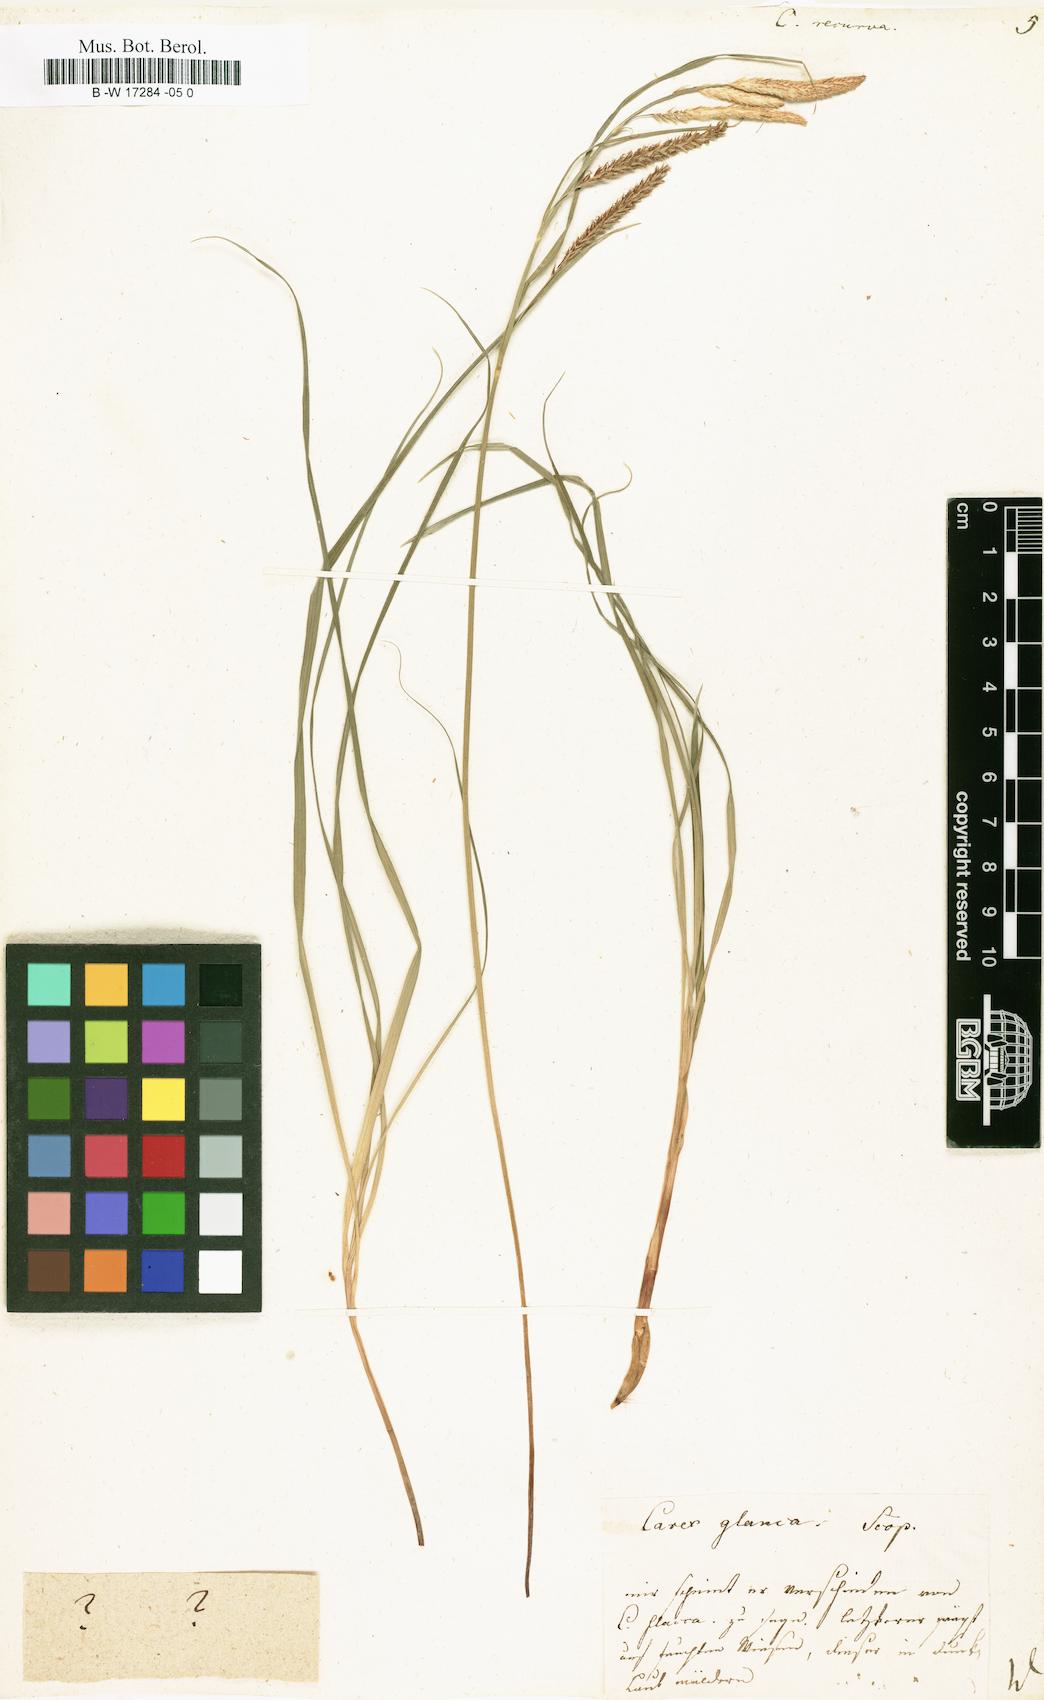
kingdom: Plantae
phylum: Tracheophyta
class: Liliopsida
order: Poales
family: Cyperaceae
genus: Carex
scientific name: Carex
